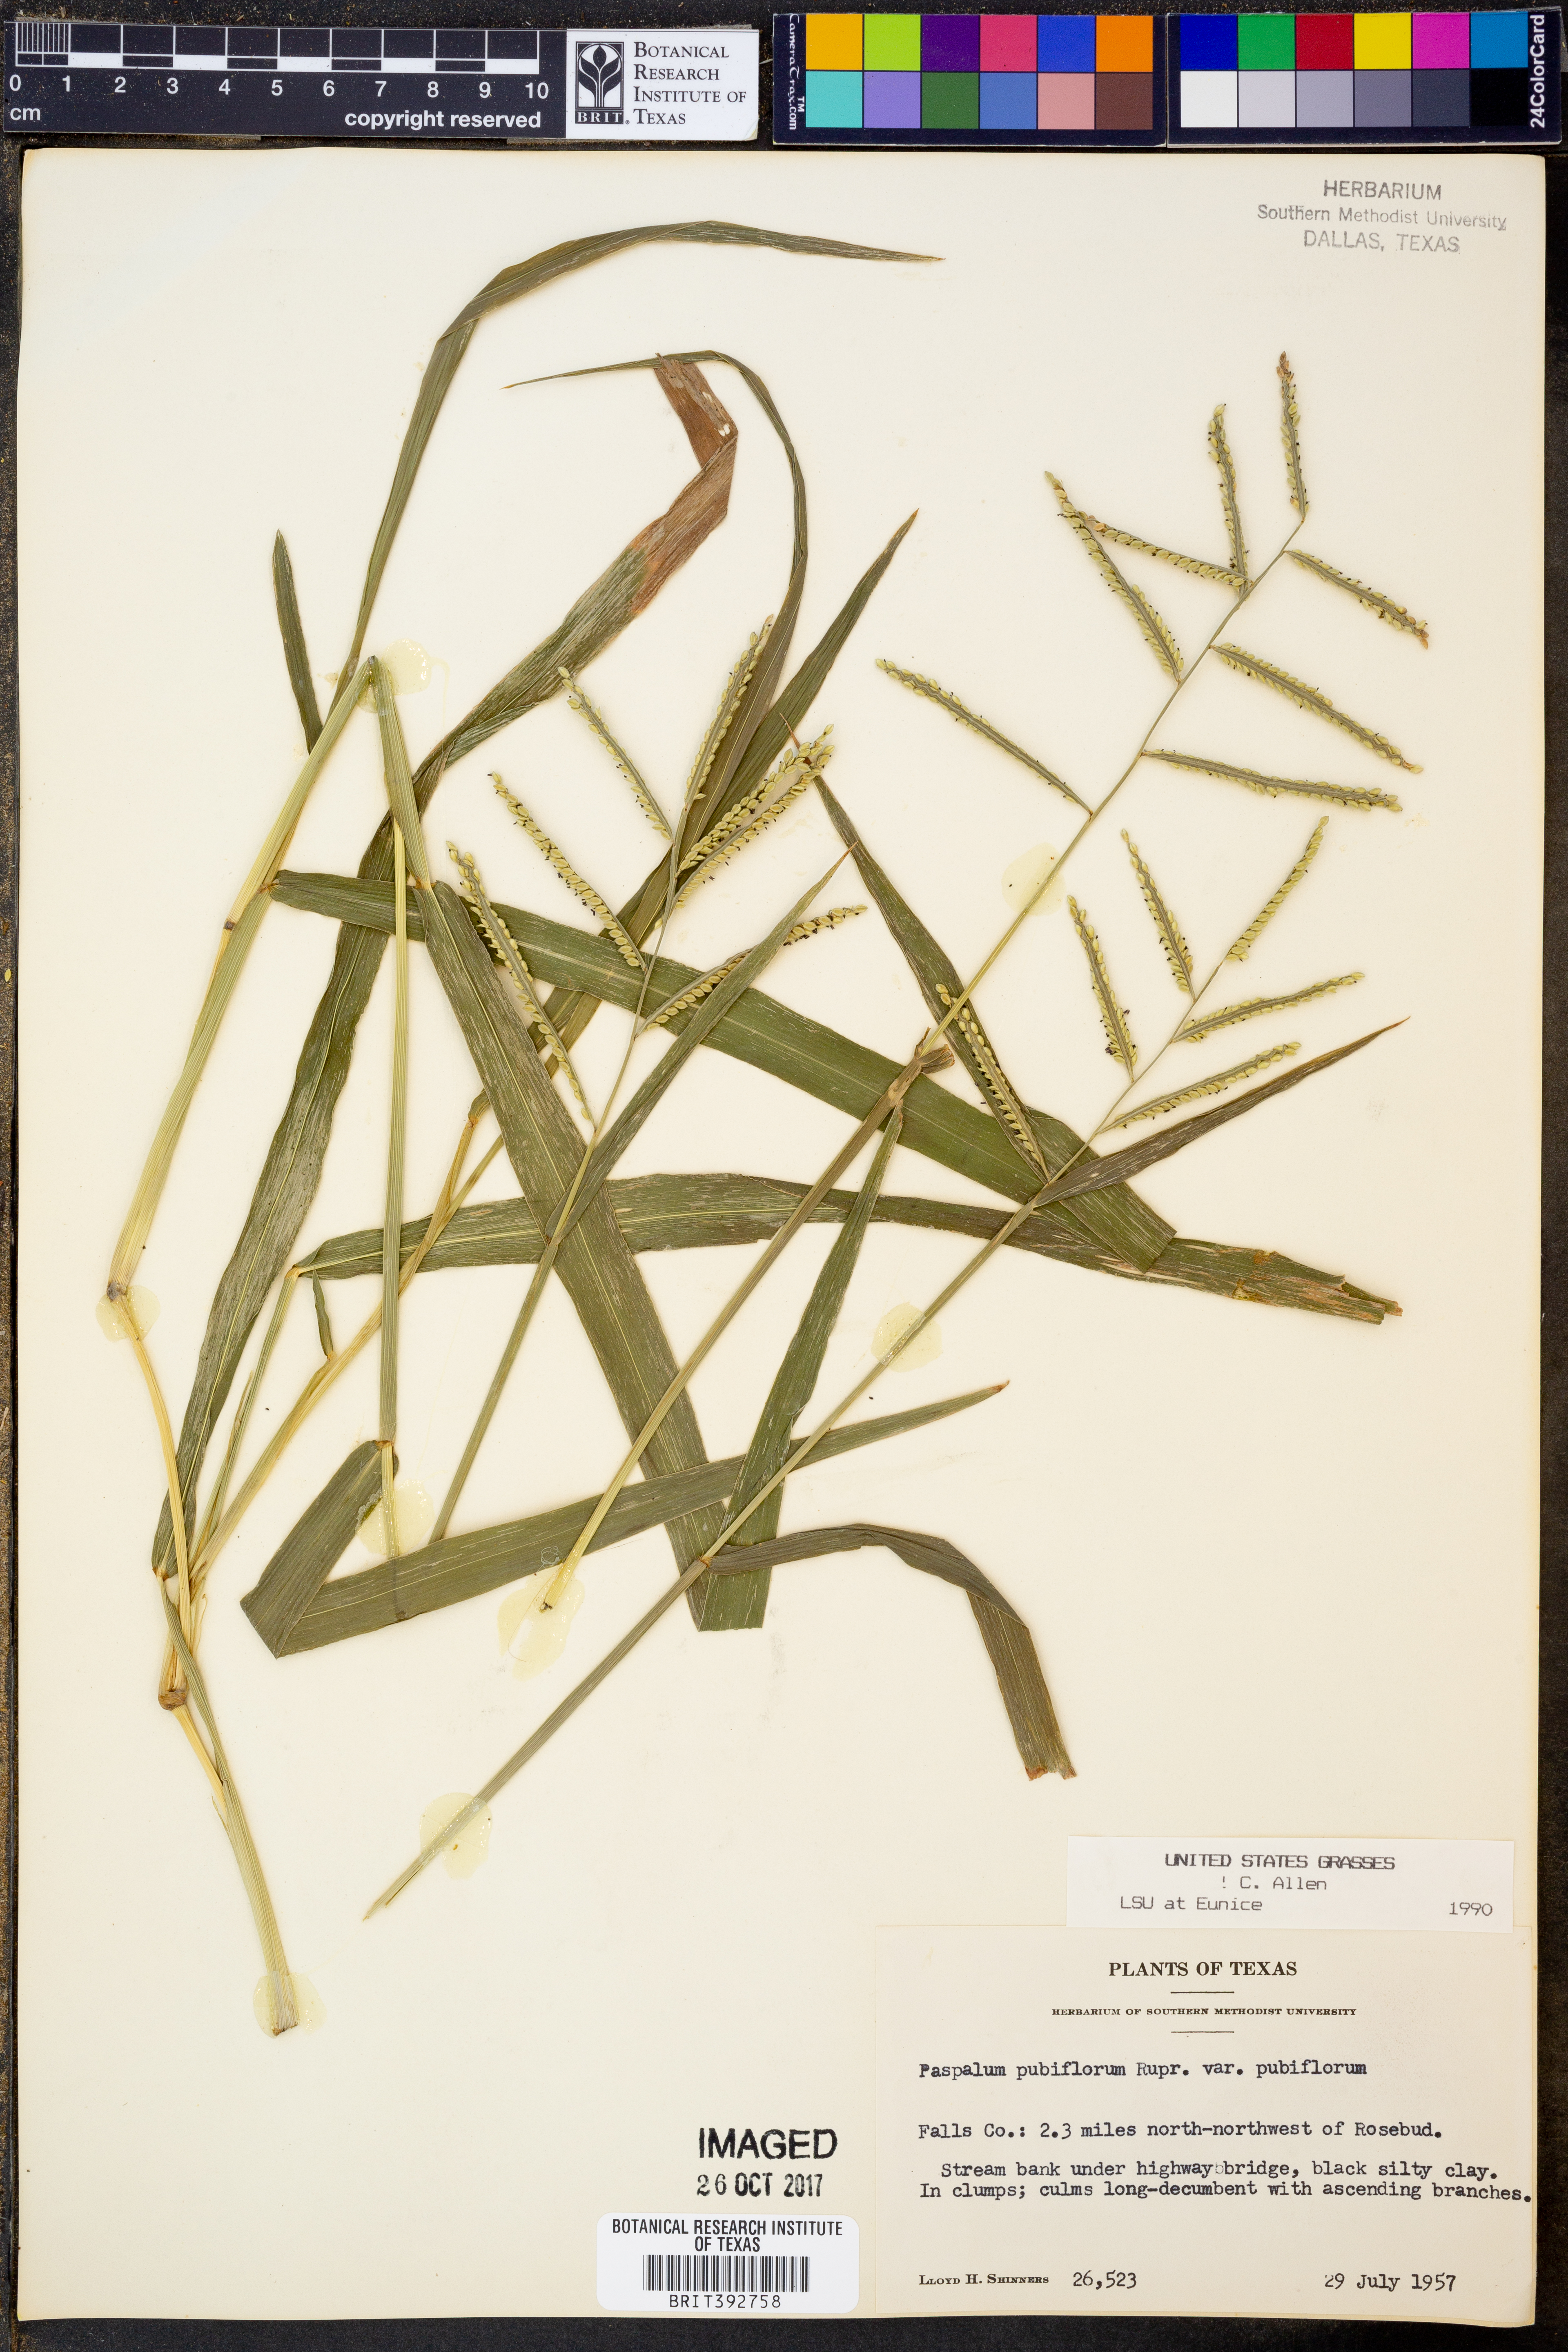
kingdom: Plantae
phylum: Tracheophyta
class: Liliopsida
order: Poales
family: Poaceae
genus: Paspalum
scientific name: Paspalum pubiflorum
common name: Hairy-seed paspalum
